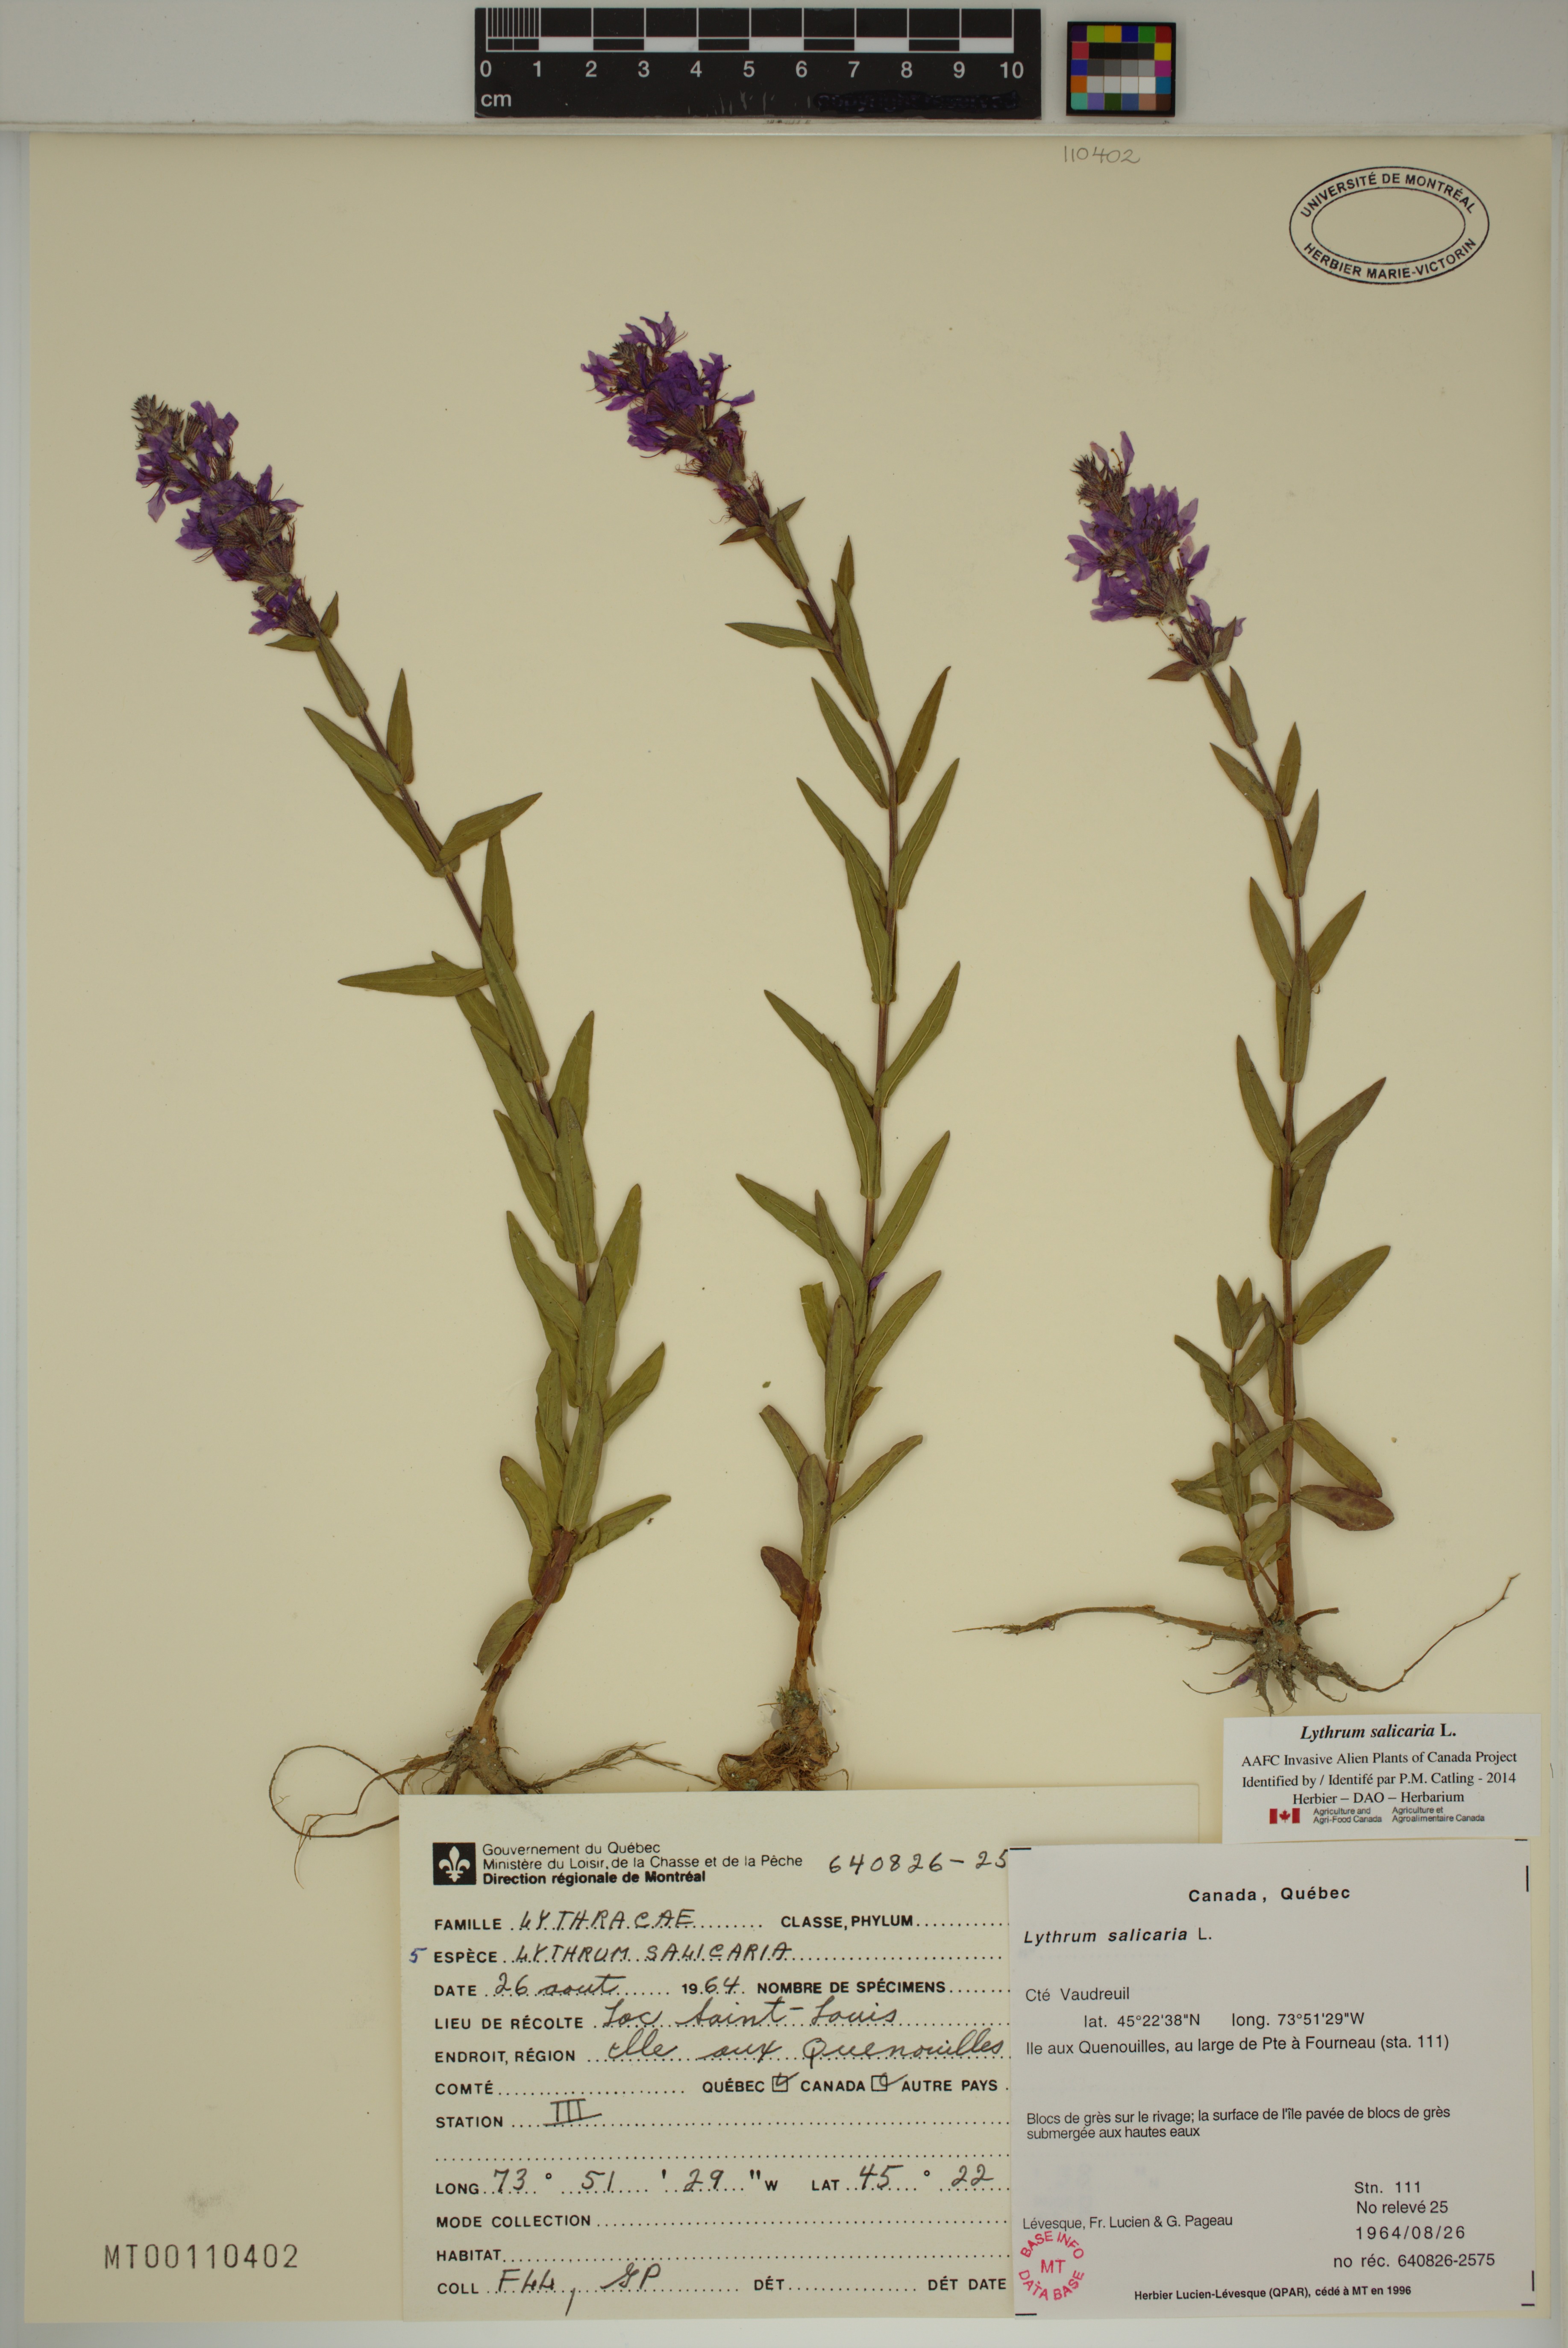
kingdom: Plantae
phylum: Tracheophyta
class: Magnoliopsida
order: Myrtales
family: Lythraceae
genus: Lythrum
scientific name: Lythrum salicaria
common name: Purple loosestrife
